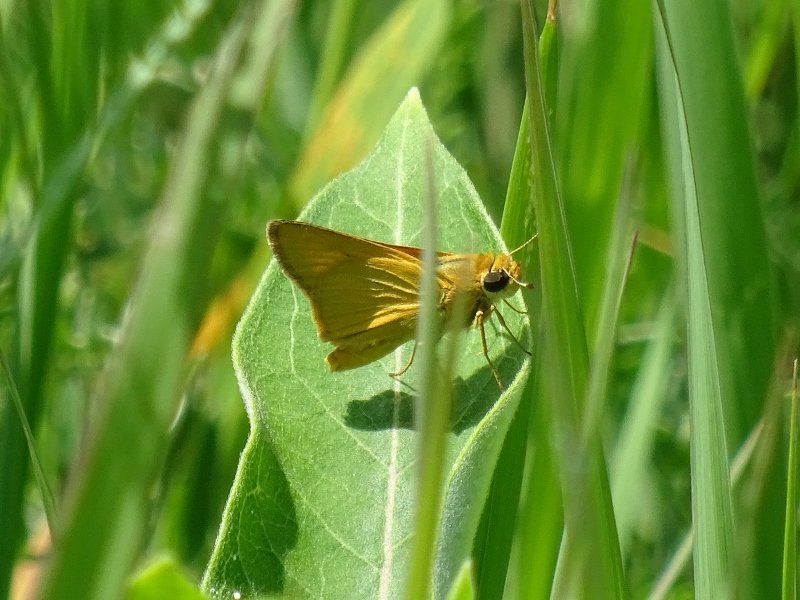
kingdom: Animalia
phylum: Arthropoda
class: Insecta
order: Lepidoptera
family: Hesperiidae
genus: Atrytone
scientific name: Atrytone delaware
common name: Delaware Skipper
